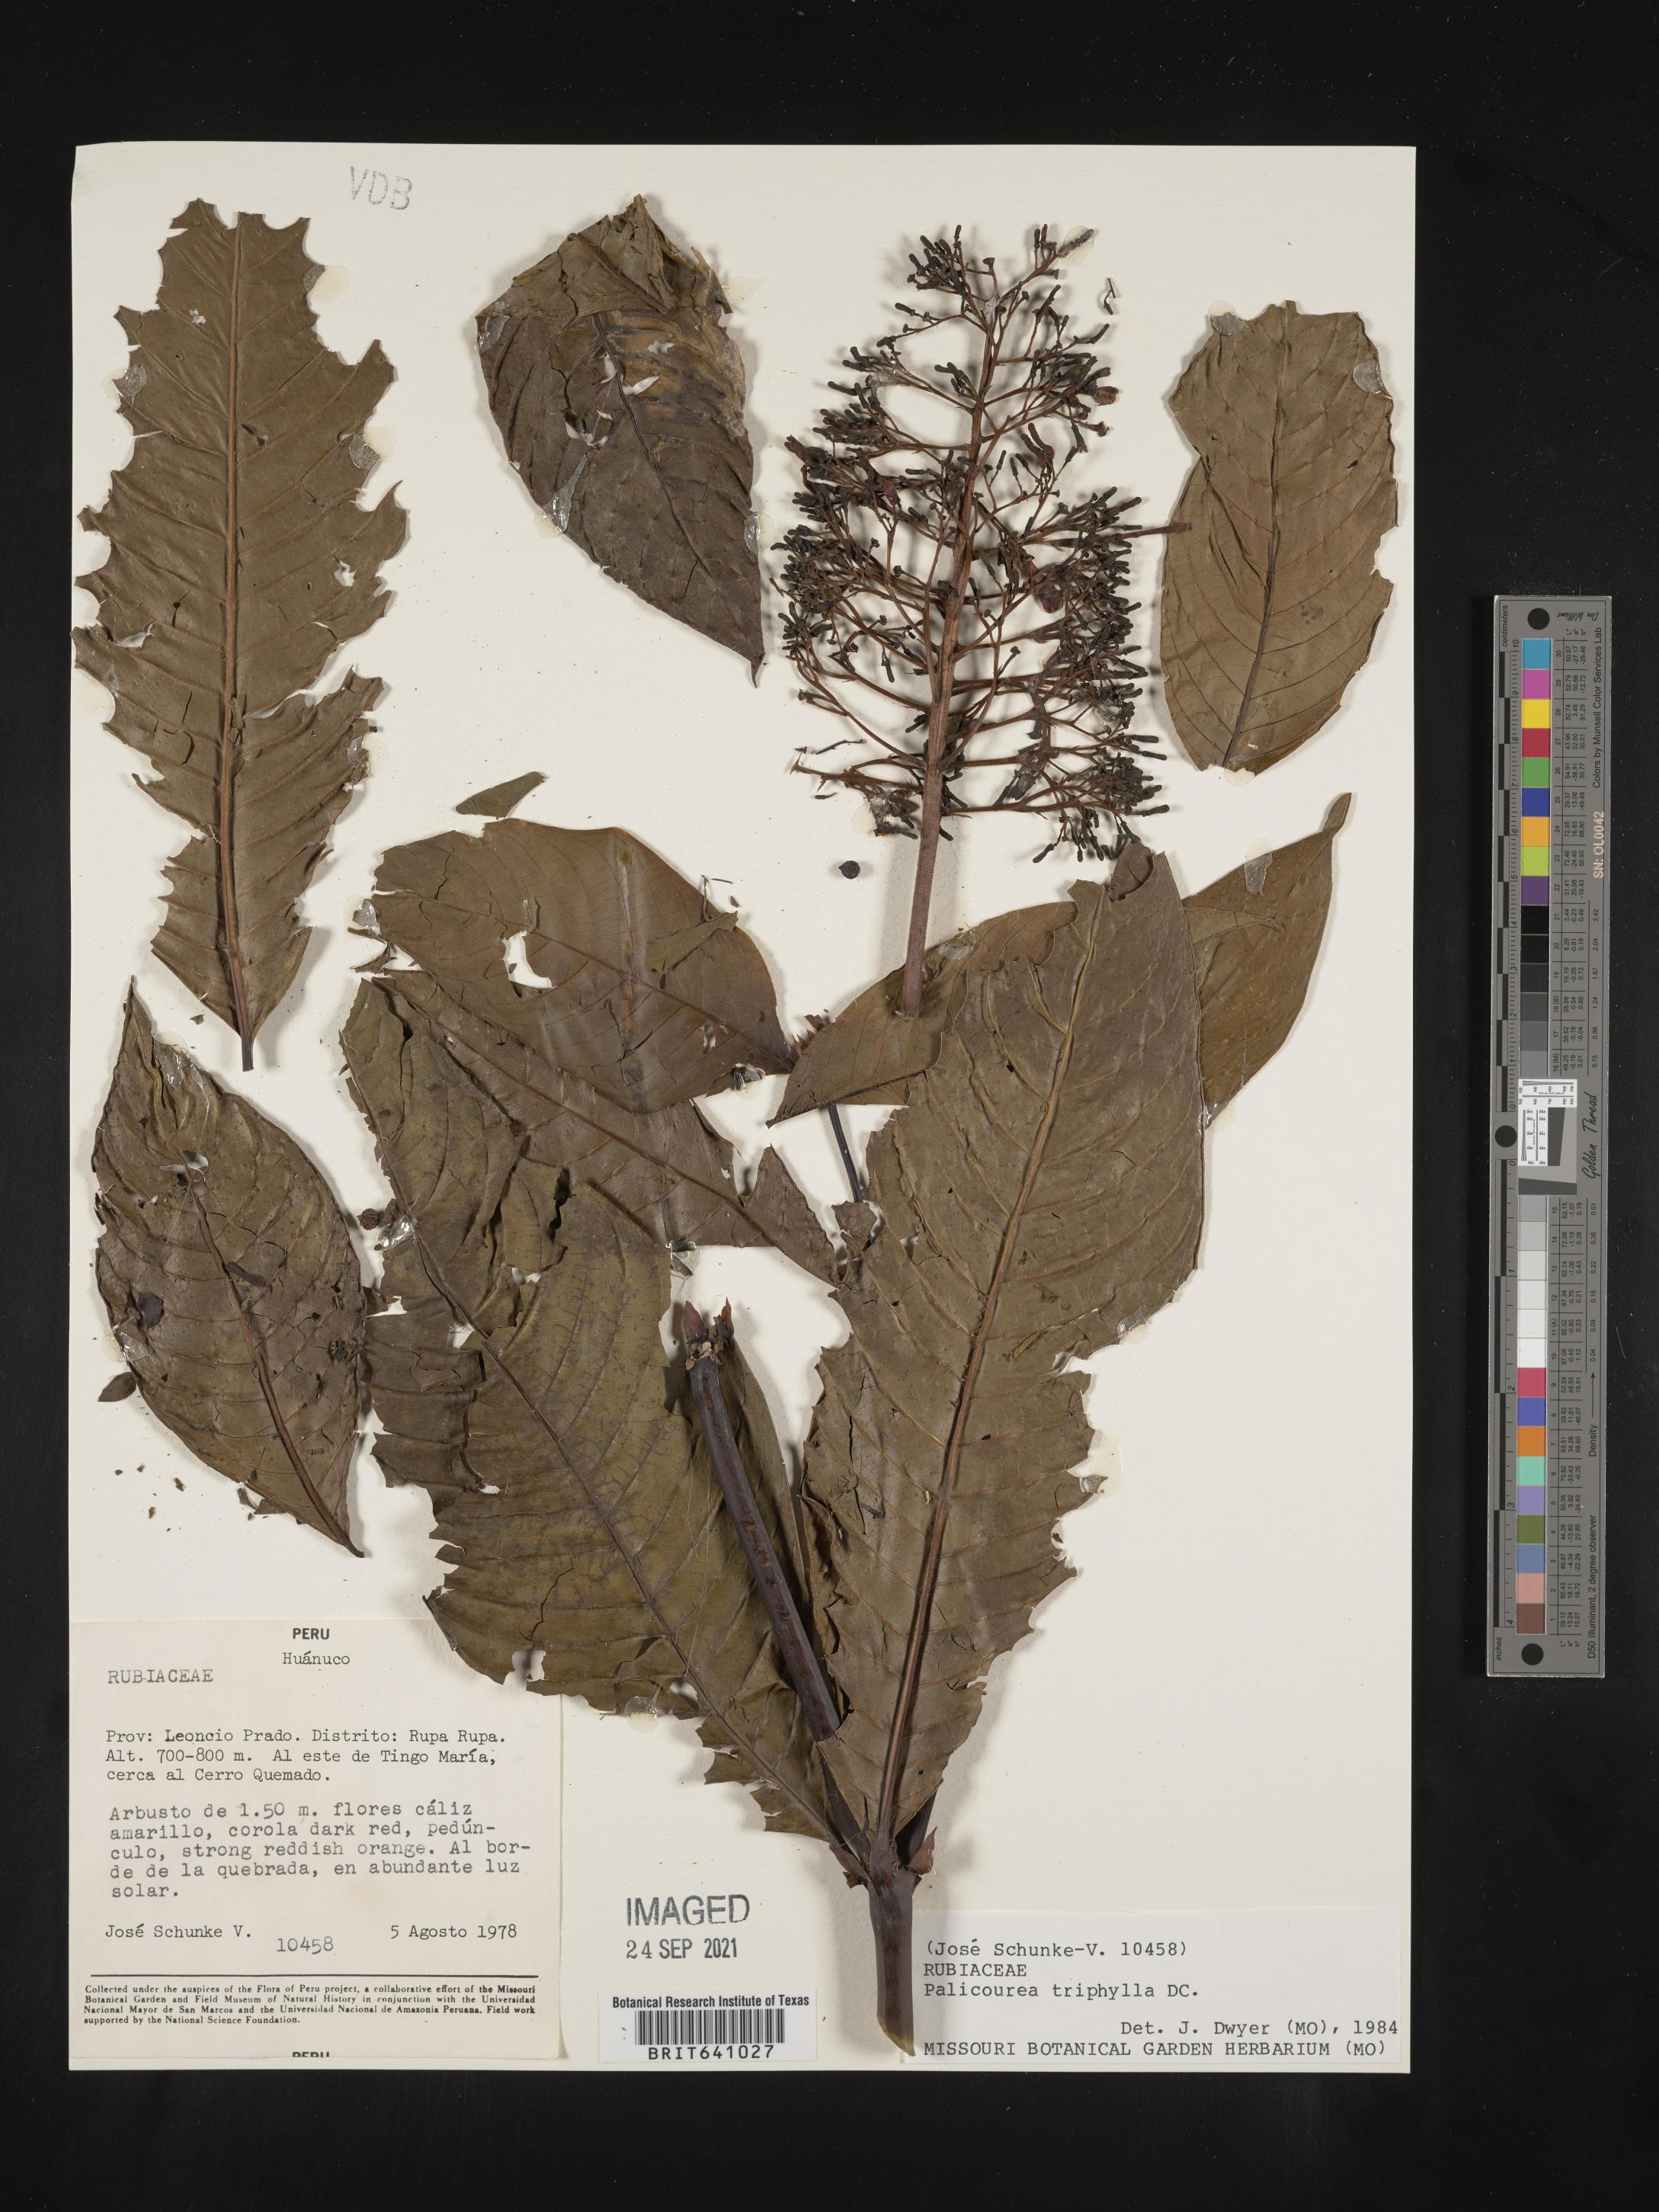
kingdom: Plantae
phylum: Tracheophyta
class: Magnoliopsida
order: Gentianales
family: Rubiaceae
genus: Palicourea
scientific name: Palicourea
